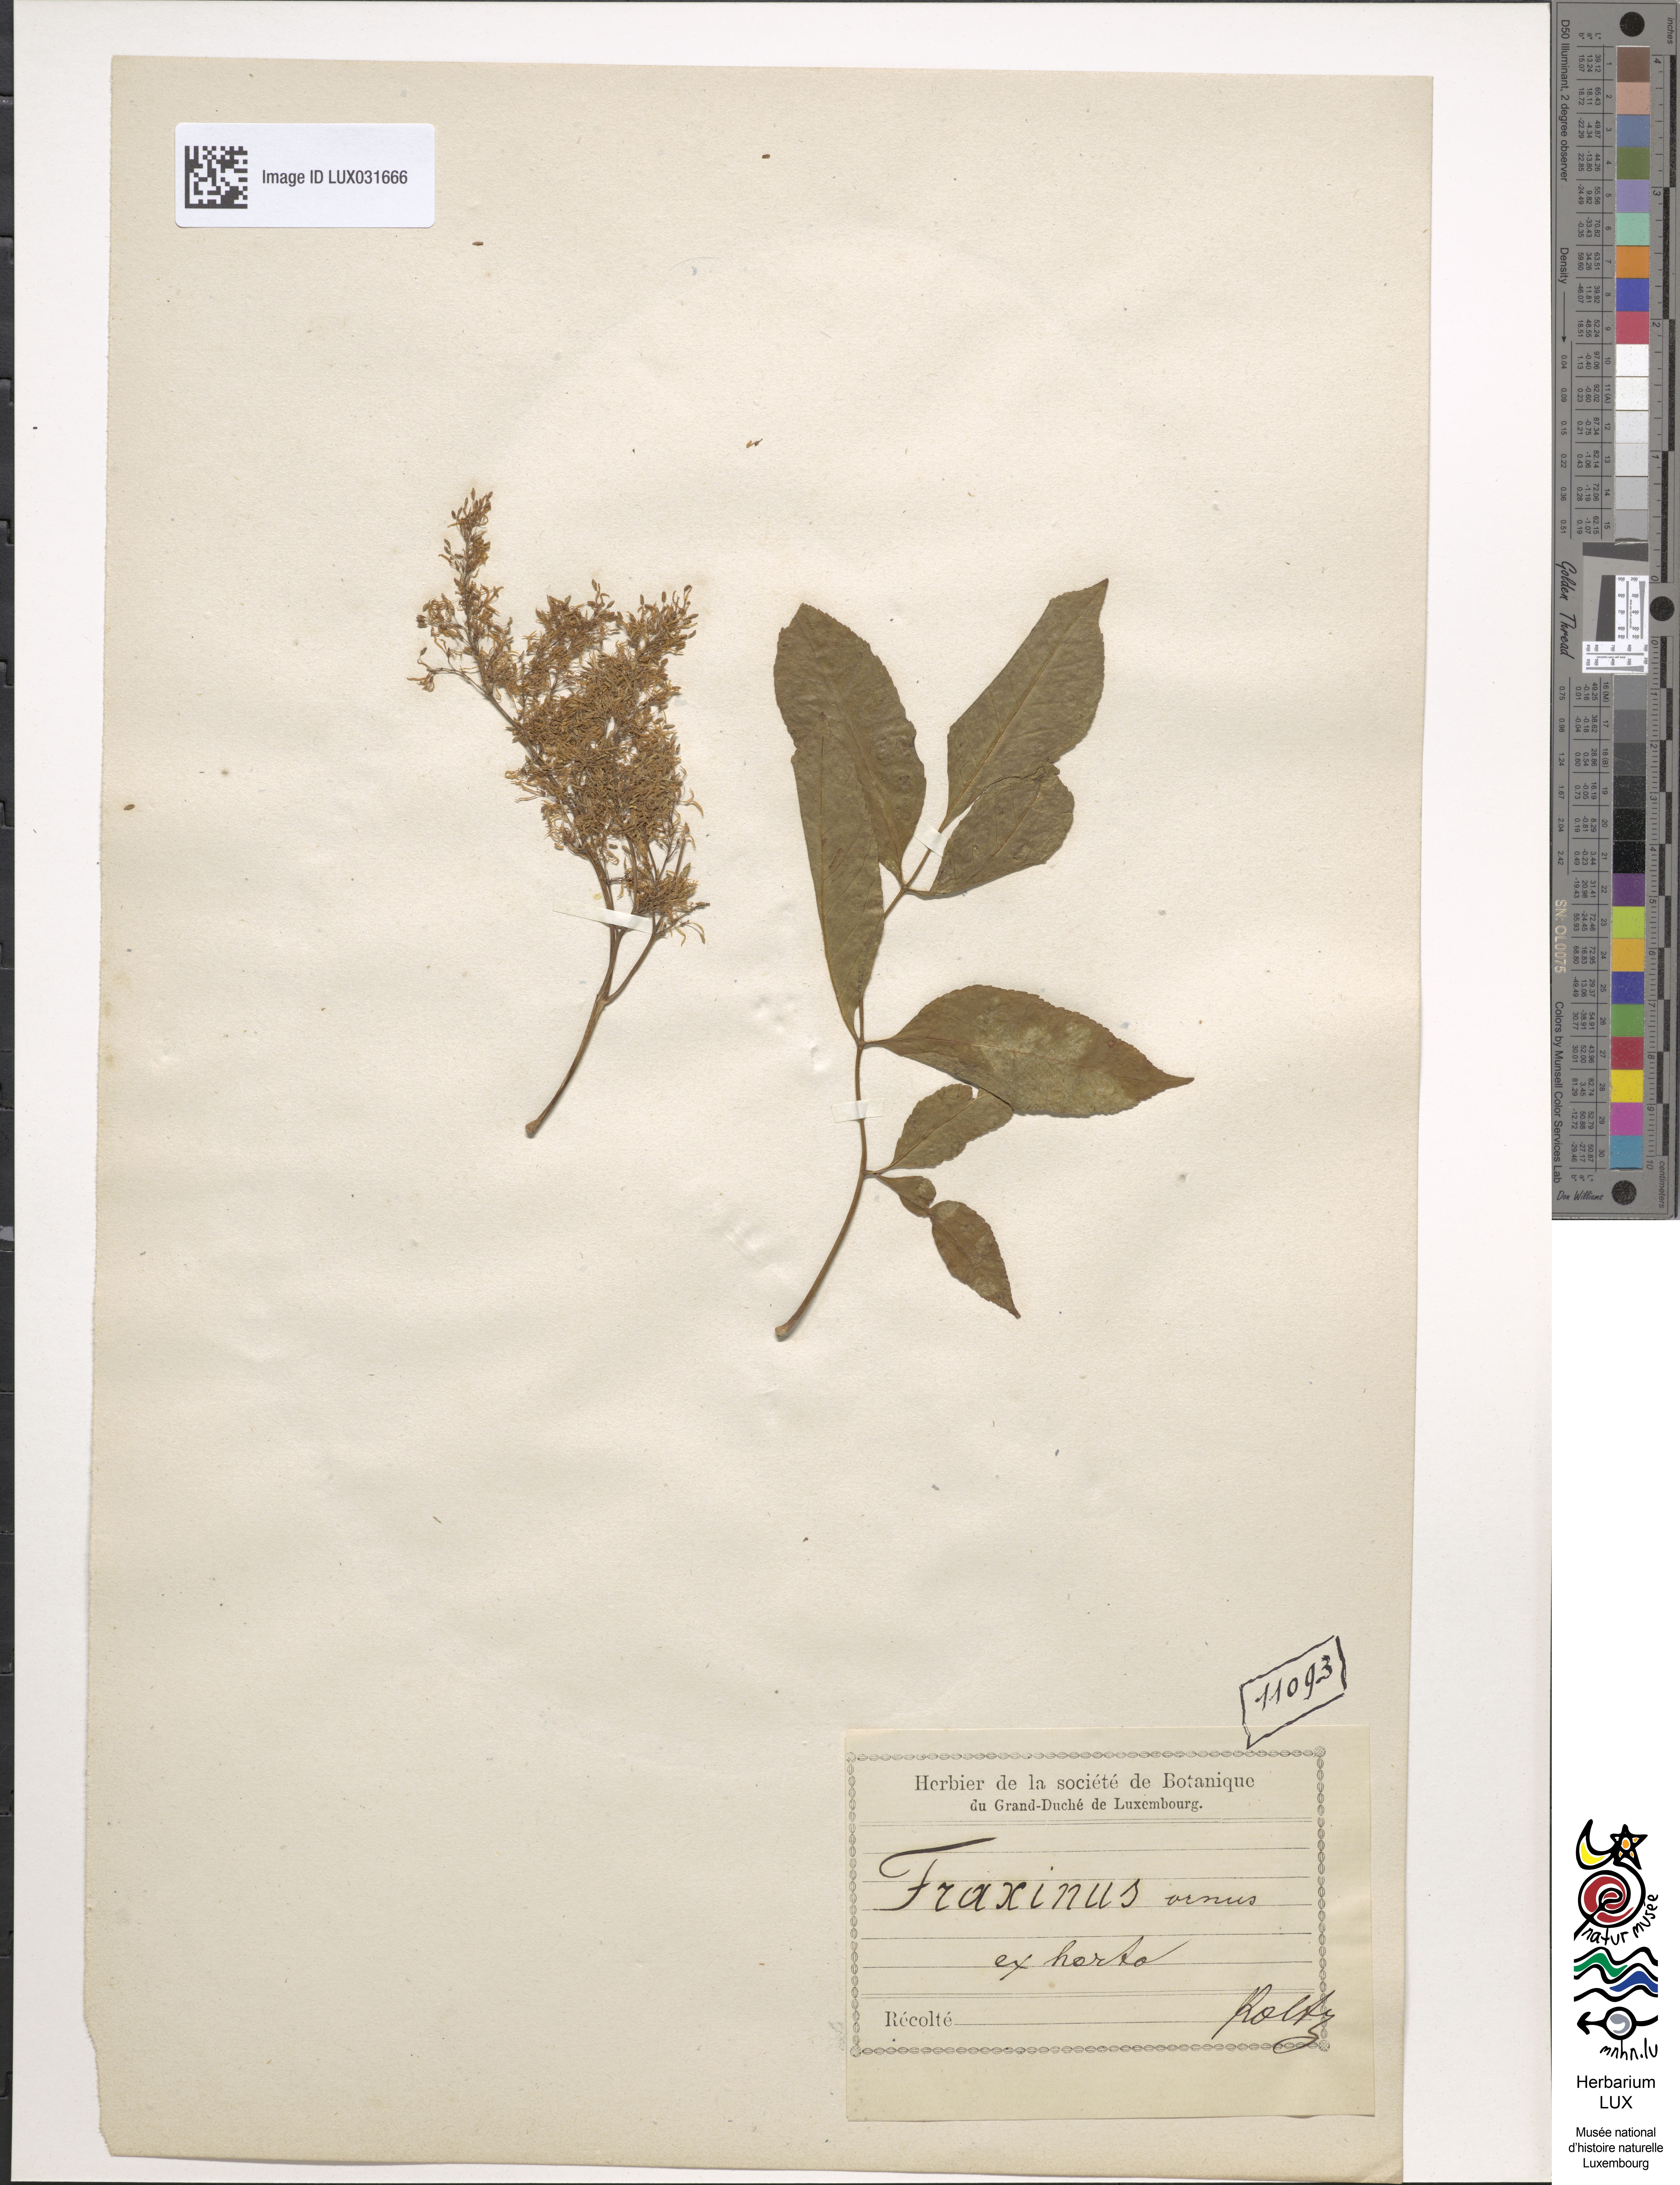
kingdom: Plantae
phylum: Tracheophyta
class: Magnoliopsida
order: Lamiales
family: Oleaceae
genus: Fraxinus
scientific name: Fraxinus ornus
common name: Manna ash
